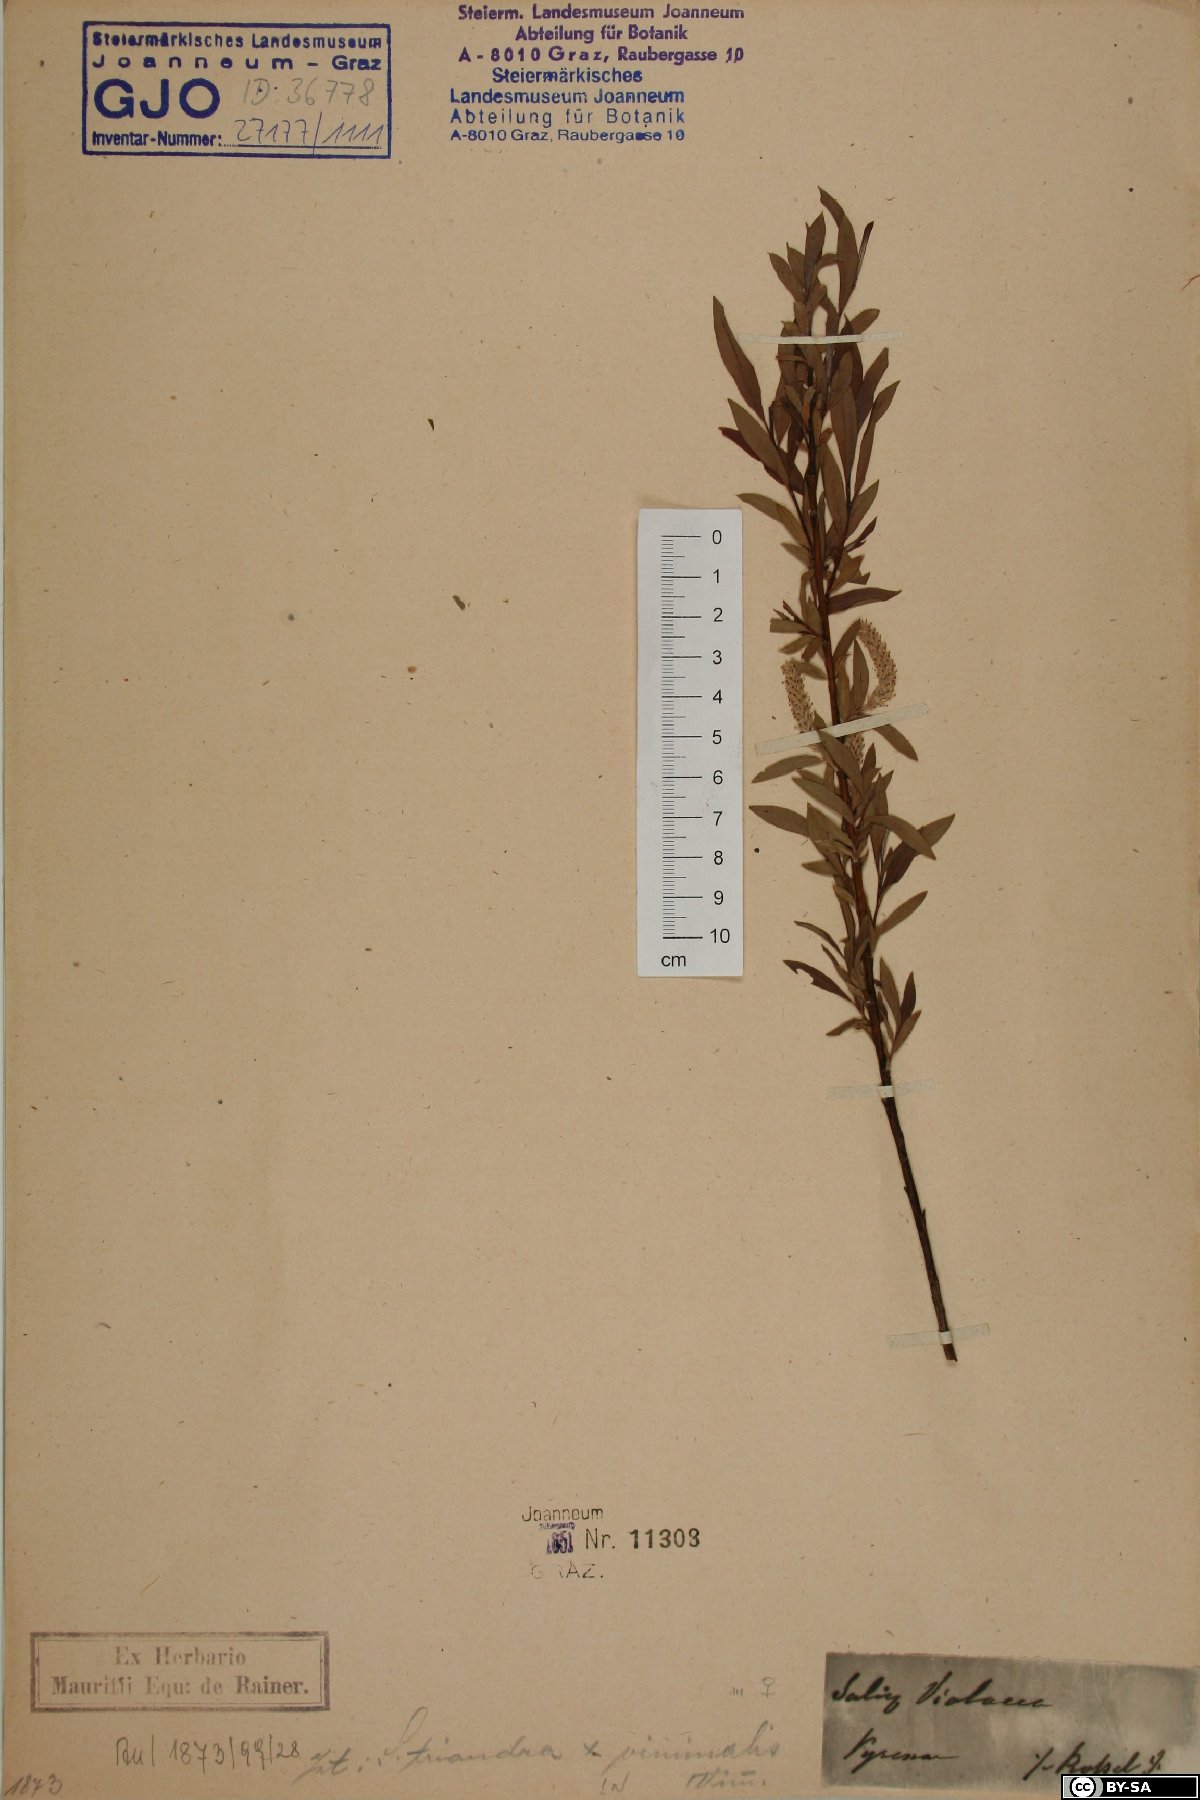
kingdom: Plantae
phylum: Tracheophyta
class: Magnoliopsida
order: Malpighiales
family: Salicaceae
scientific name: Salicaceae
